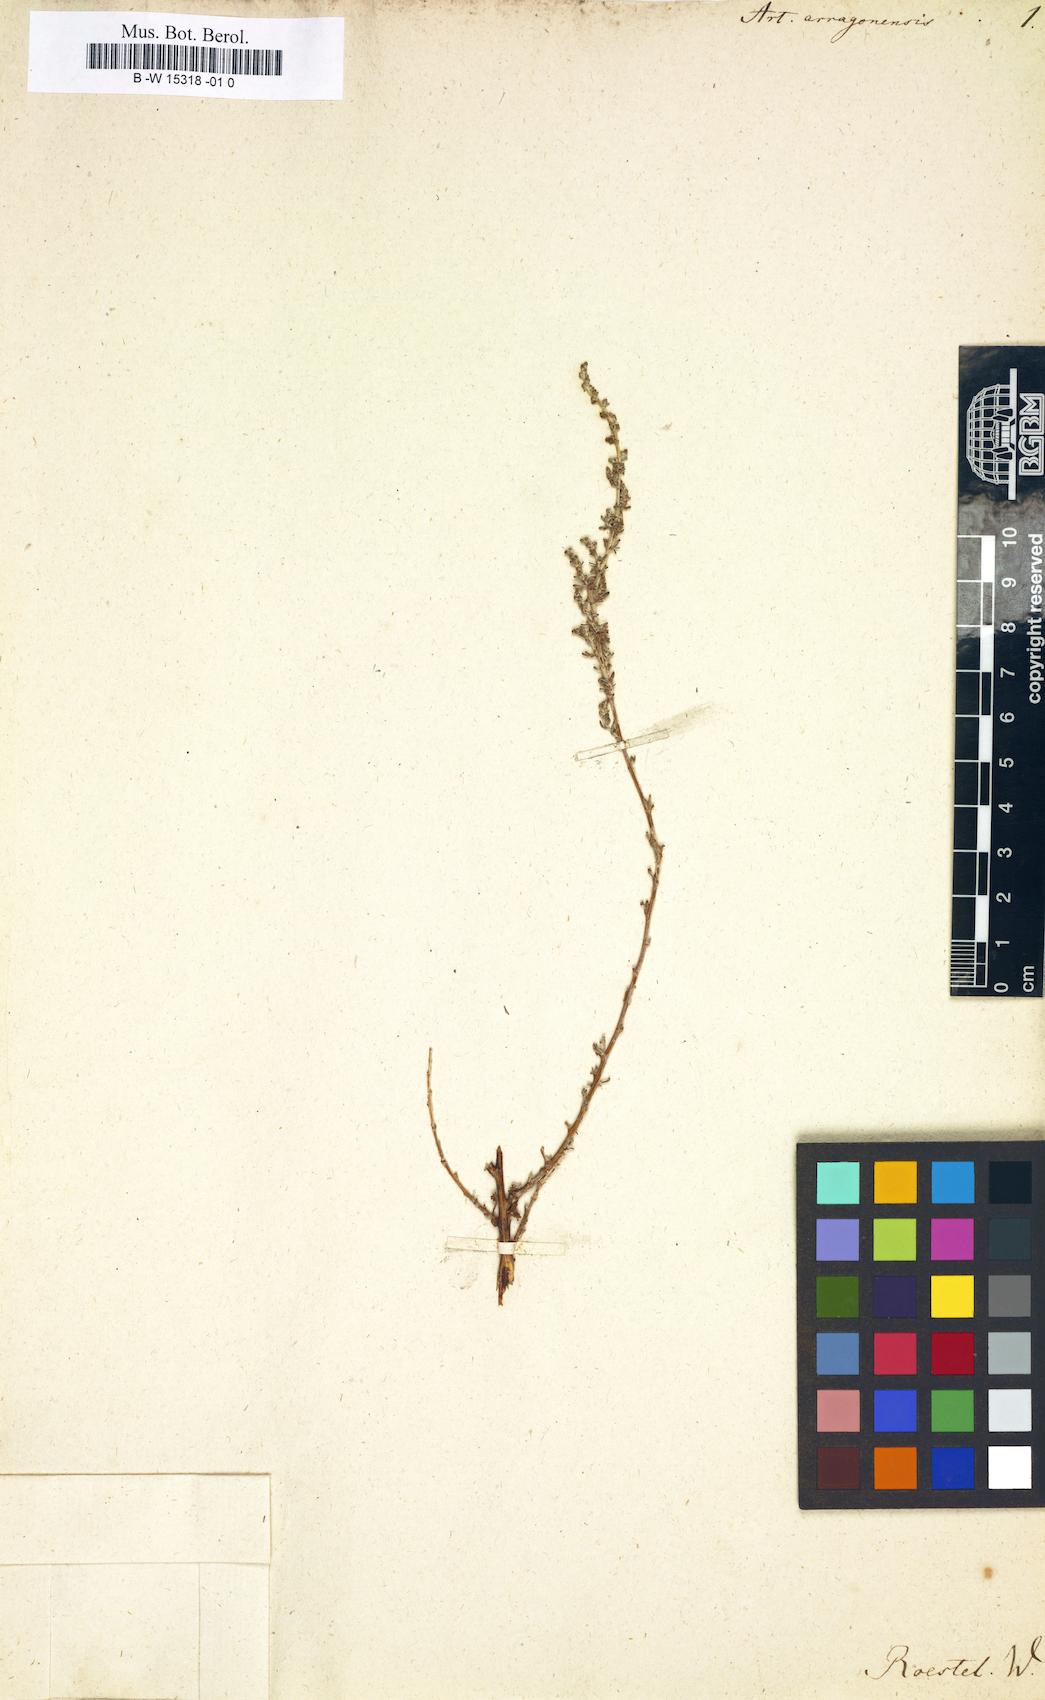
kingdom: Plantae
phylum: Tracheophyta
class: Magnoliopsida
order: Asterales
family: Asteraceae
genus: Artemisia
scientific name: Artemisia herba-alba
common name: White wormwood
